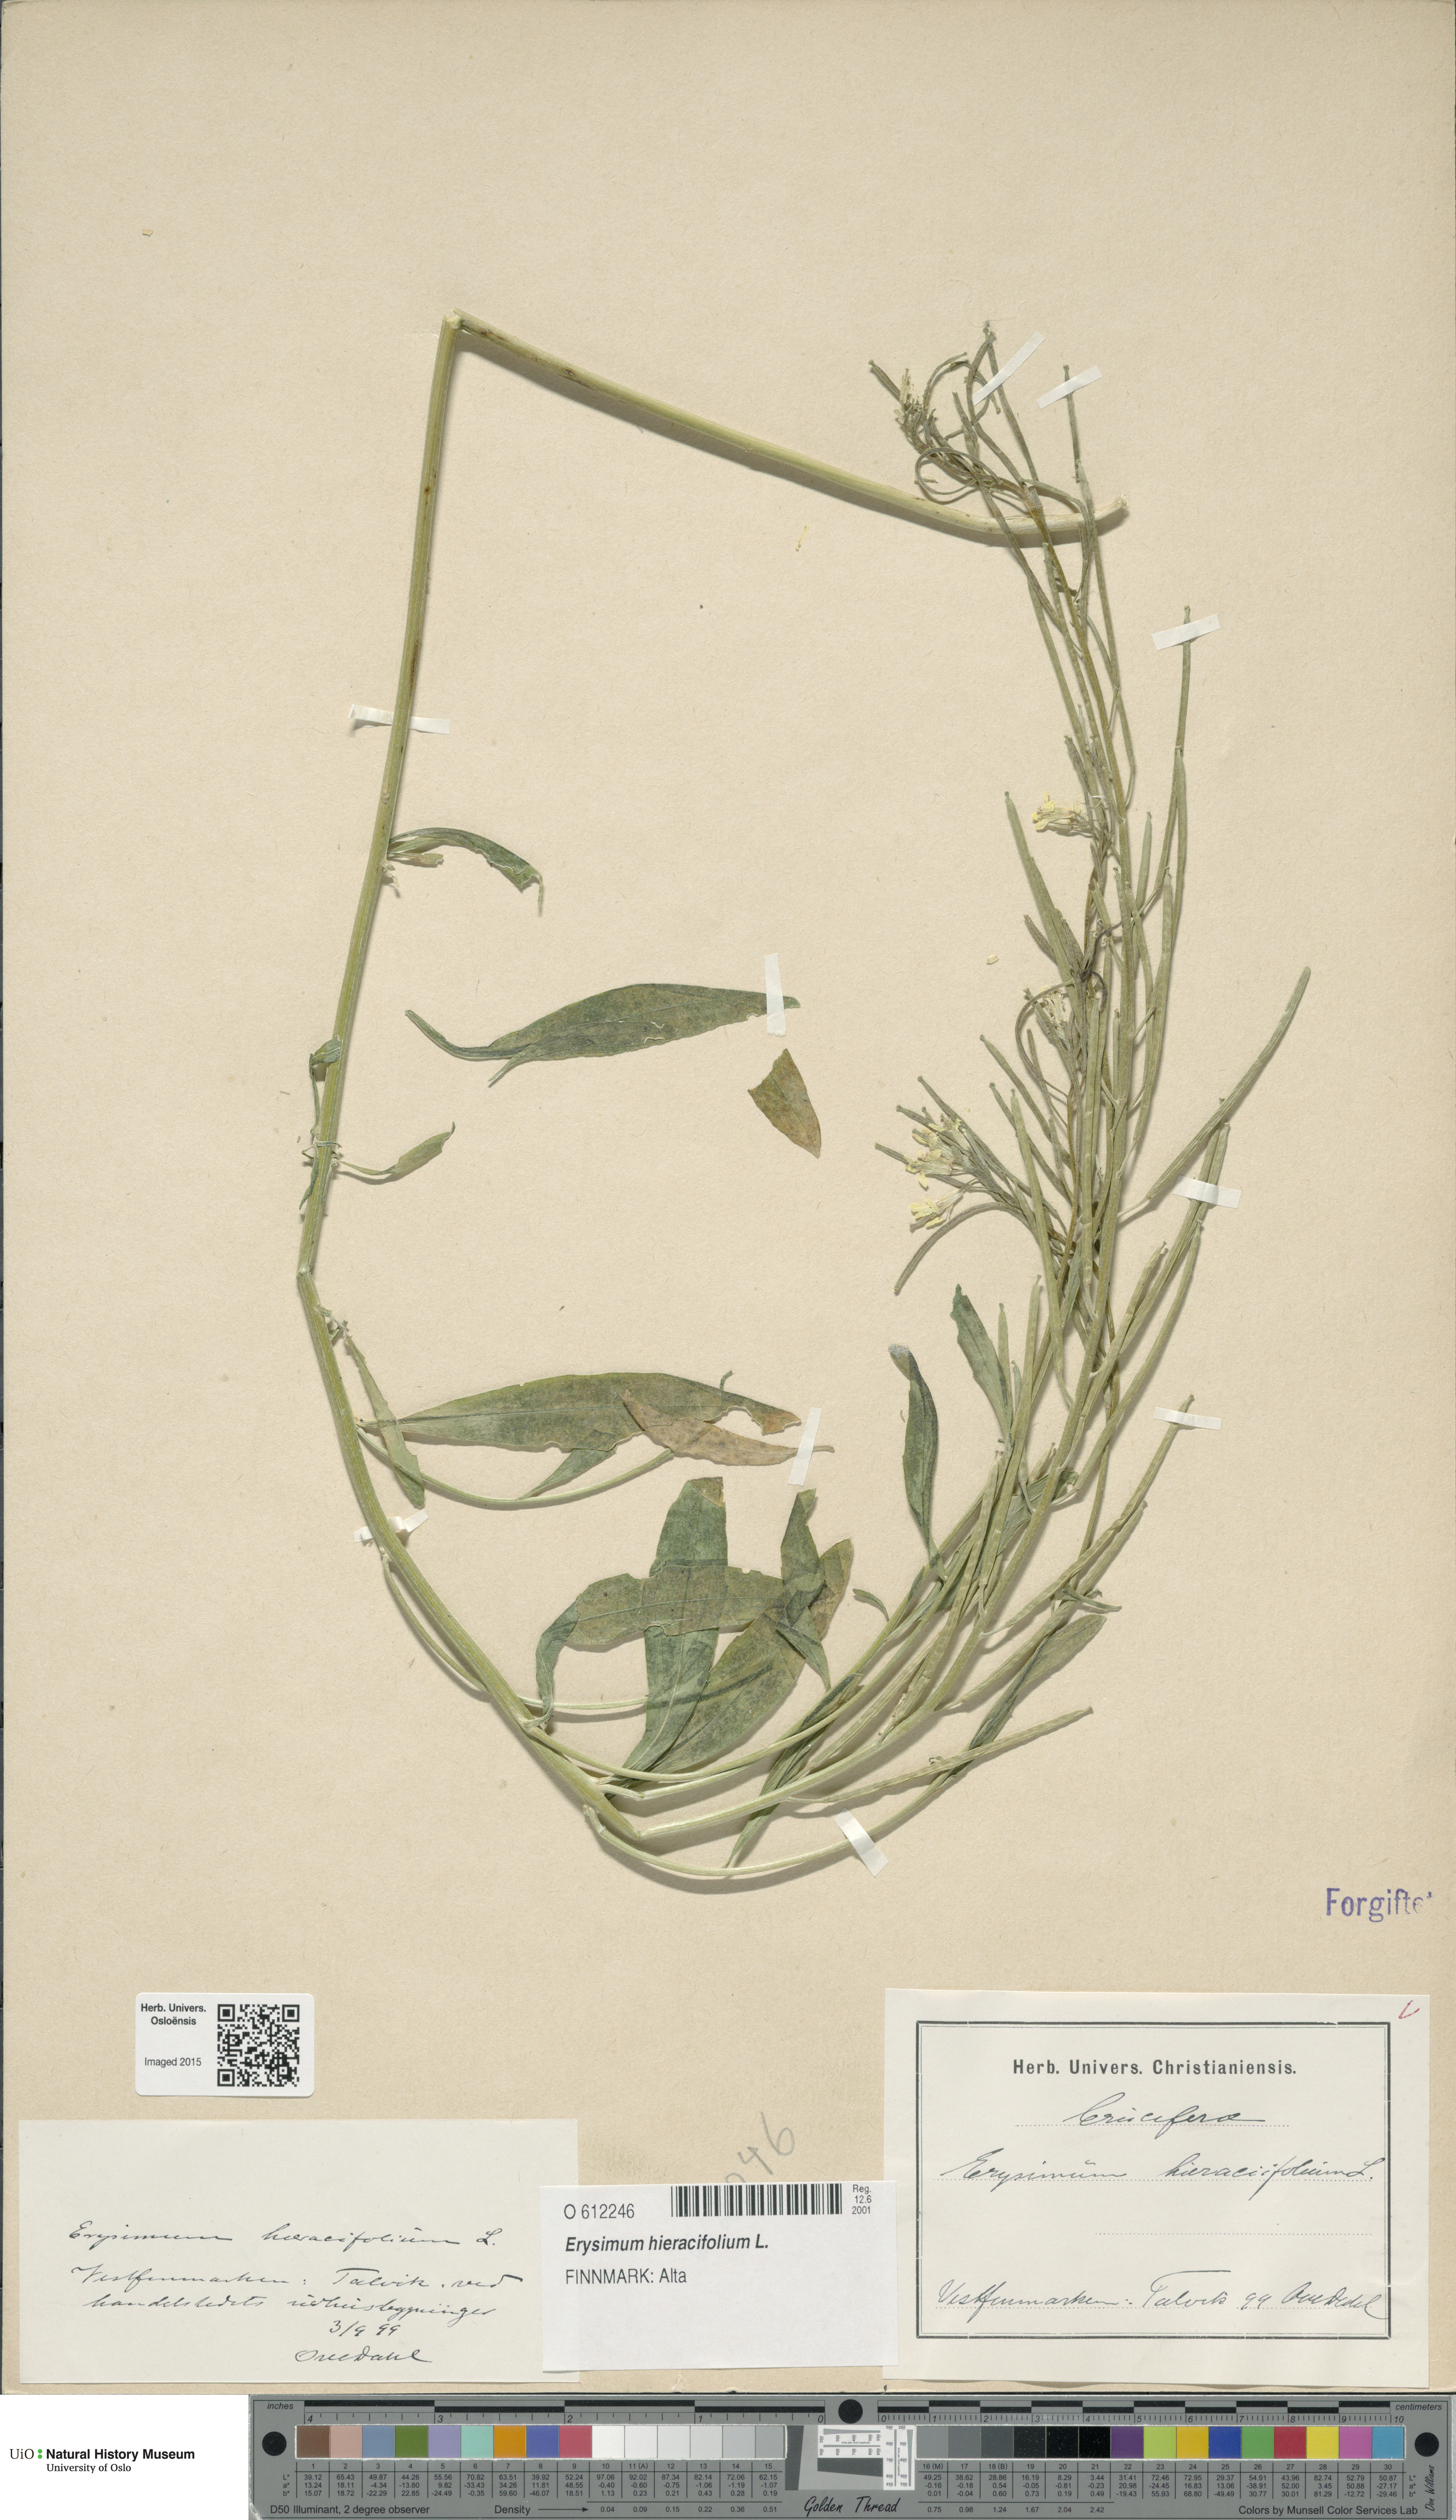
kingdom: Plantae
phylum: Tracheophyta
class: Magnoliopsida
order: Brassicales
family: Brassicaceae
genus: Erysimum
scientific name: Erysimum hieraciifolium
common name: European wallflower
